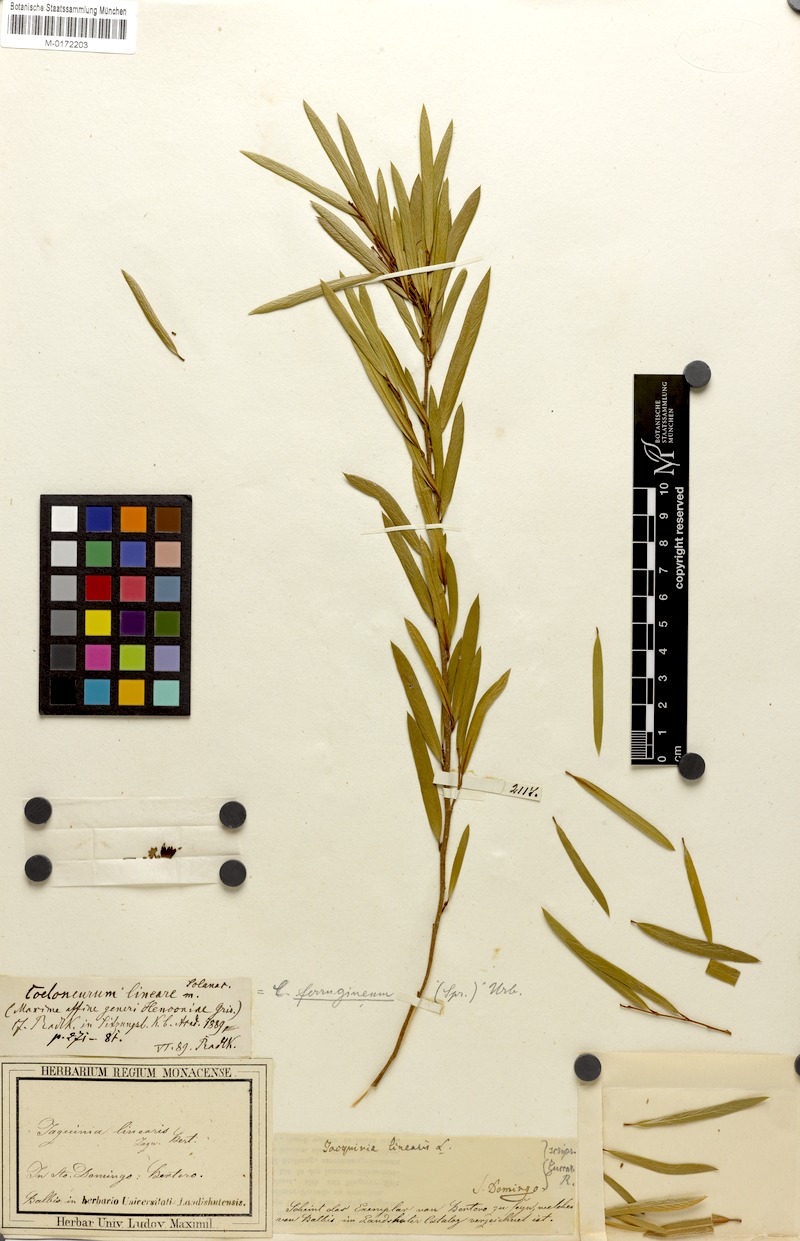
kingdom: Plantae
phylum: Tracheophyta
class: Magnoliopsida
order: Solanales
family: Solanaceae
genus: Coeloneurum
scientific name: Coeloneurum ferrugineum
